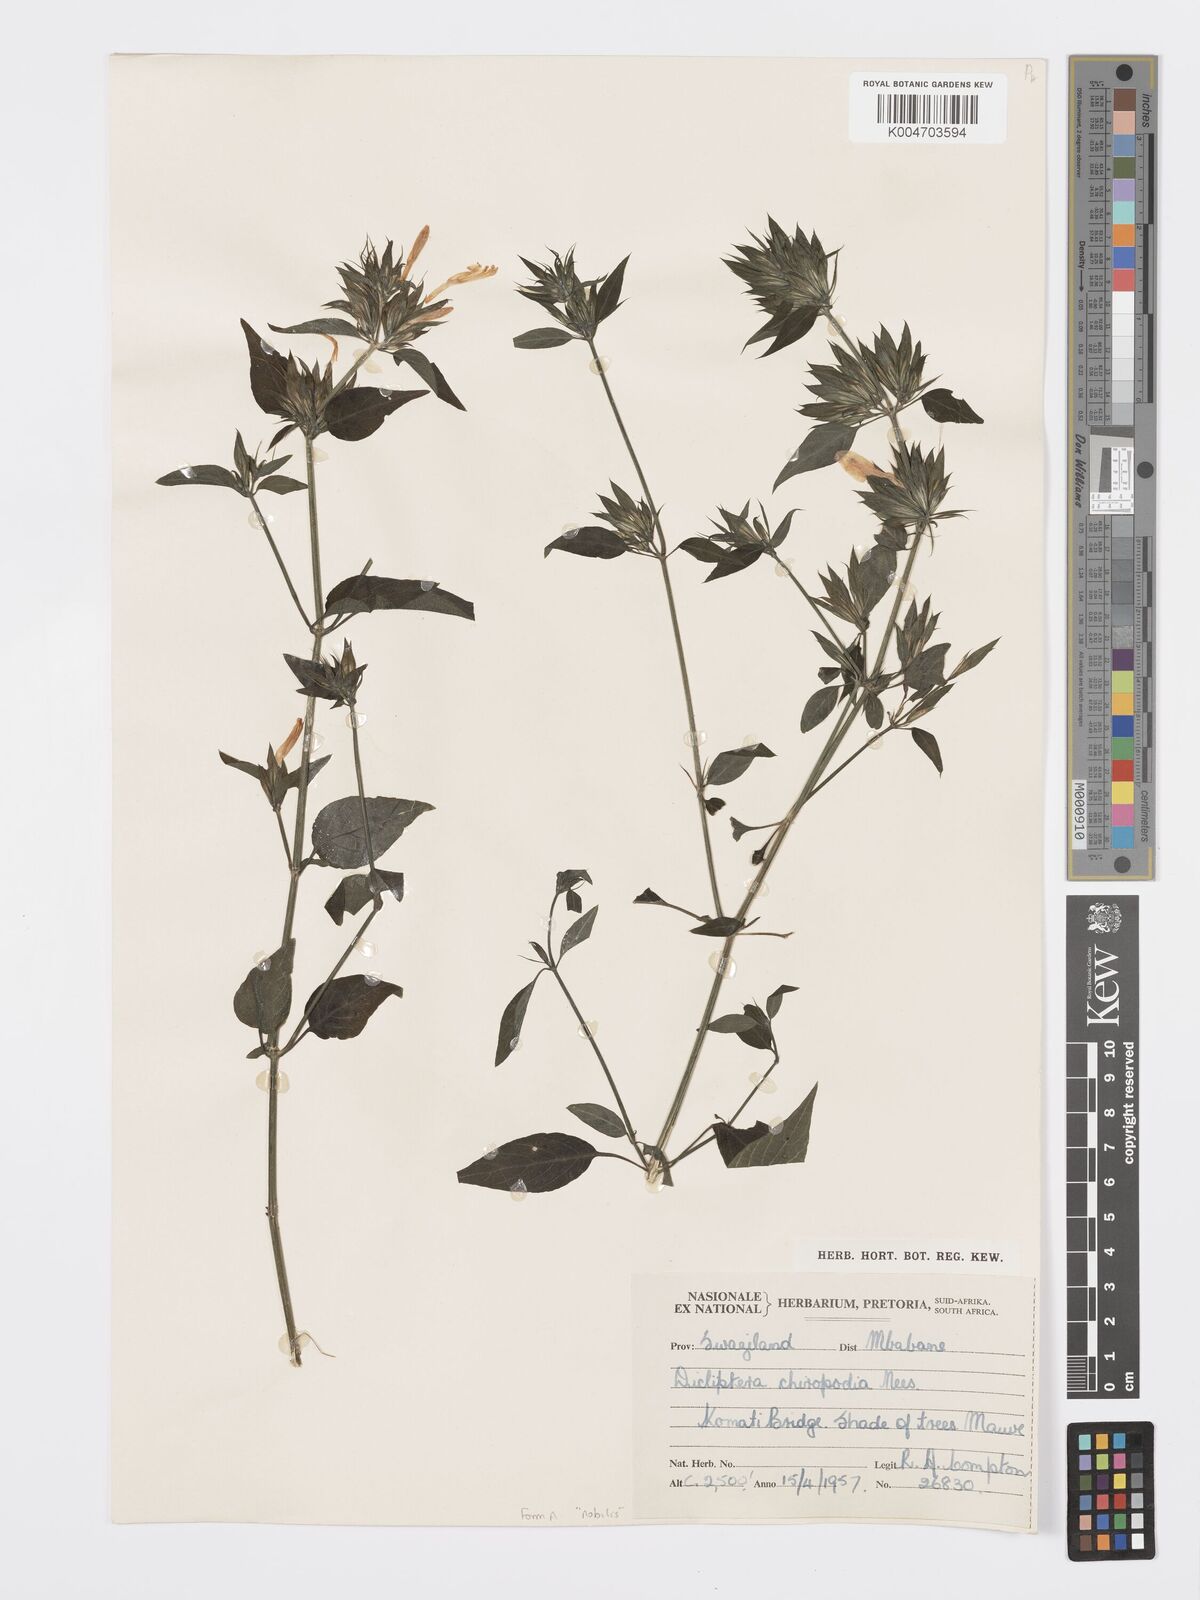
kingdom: Plantae
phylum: Tracheophyta
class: Magnoliopsida
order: Lamiales
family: Acanthaceae
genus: Dicliptera
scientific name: Dicliptera clinopodia
